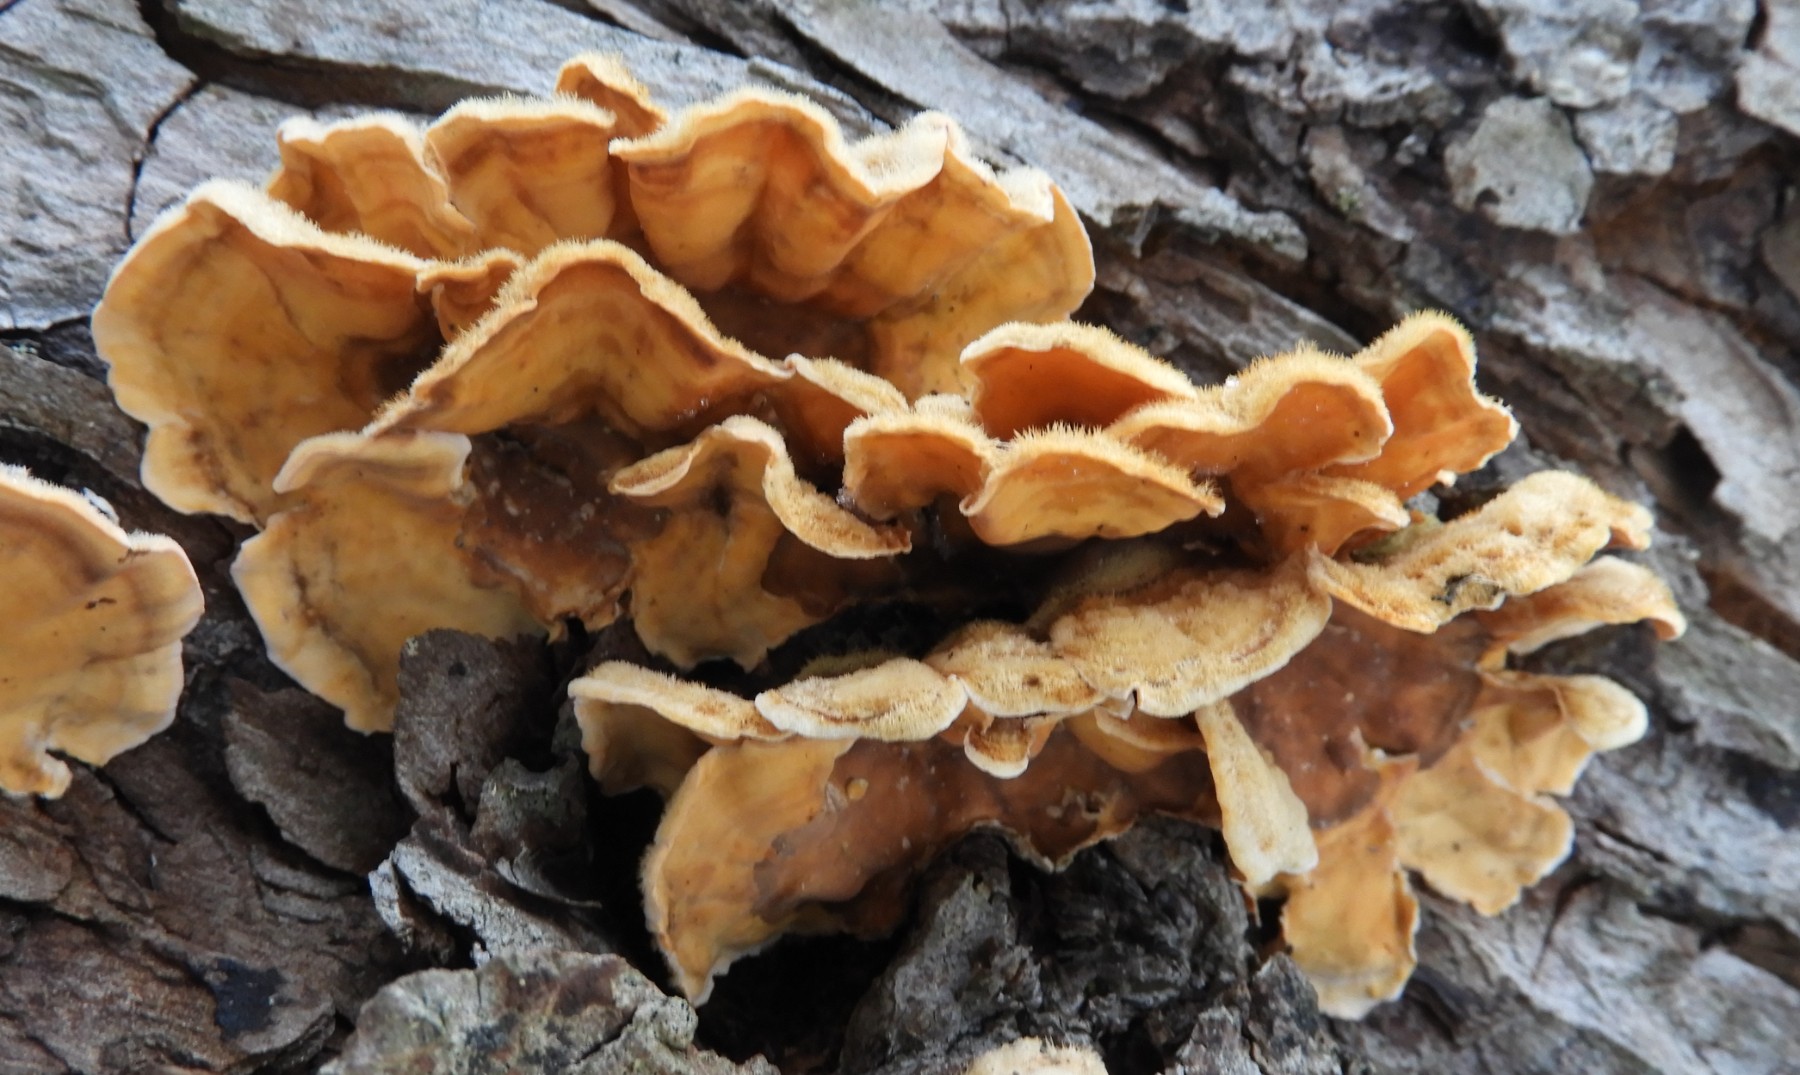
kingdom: Fungi
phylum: Basidiomycota
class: Agaricomycetes
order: Russulales
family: Stereaceae
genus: Stereum
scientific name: Stereum hirsutum
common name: håret lædersvamp
